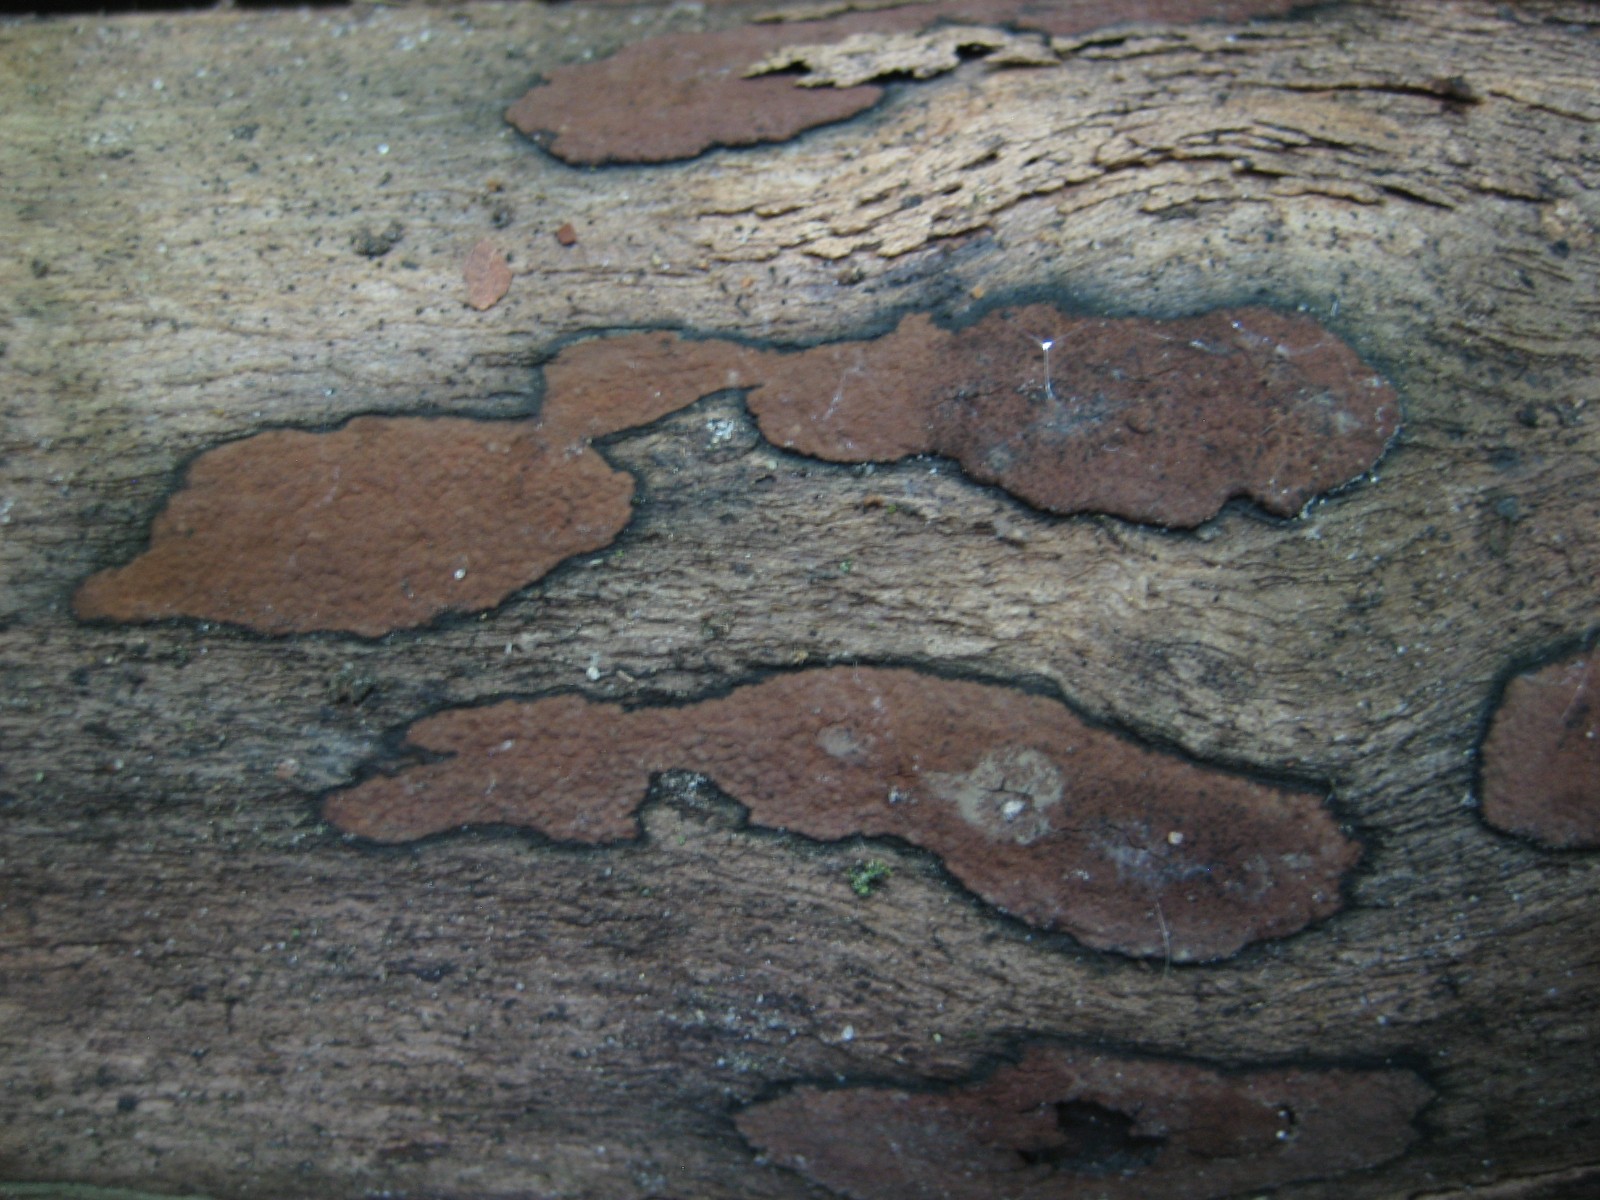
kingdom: Fungi
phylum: Ascomycota
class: Sordariomycetes
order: Xylariales
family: Hypoxylaceae
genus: Hypoxylon
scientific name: Hypoxylon petriniae
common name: nedsænket kulbær
